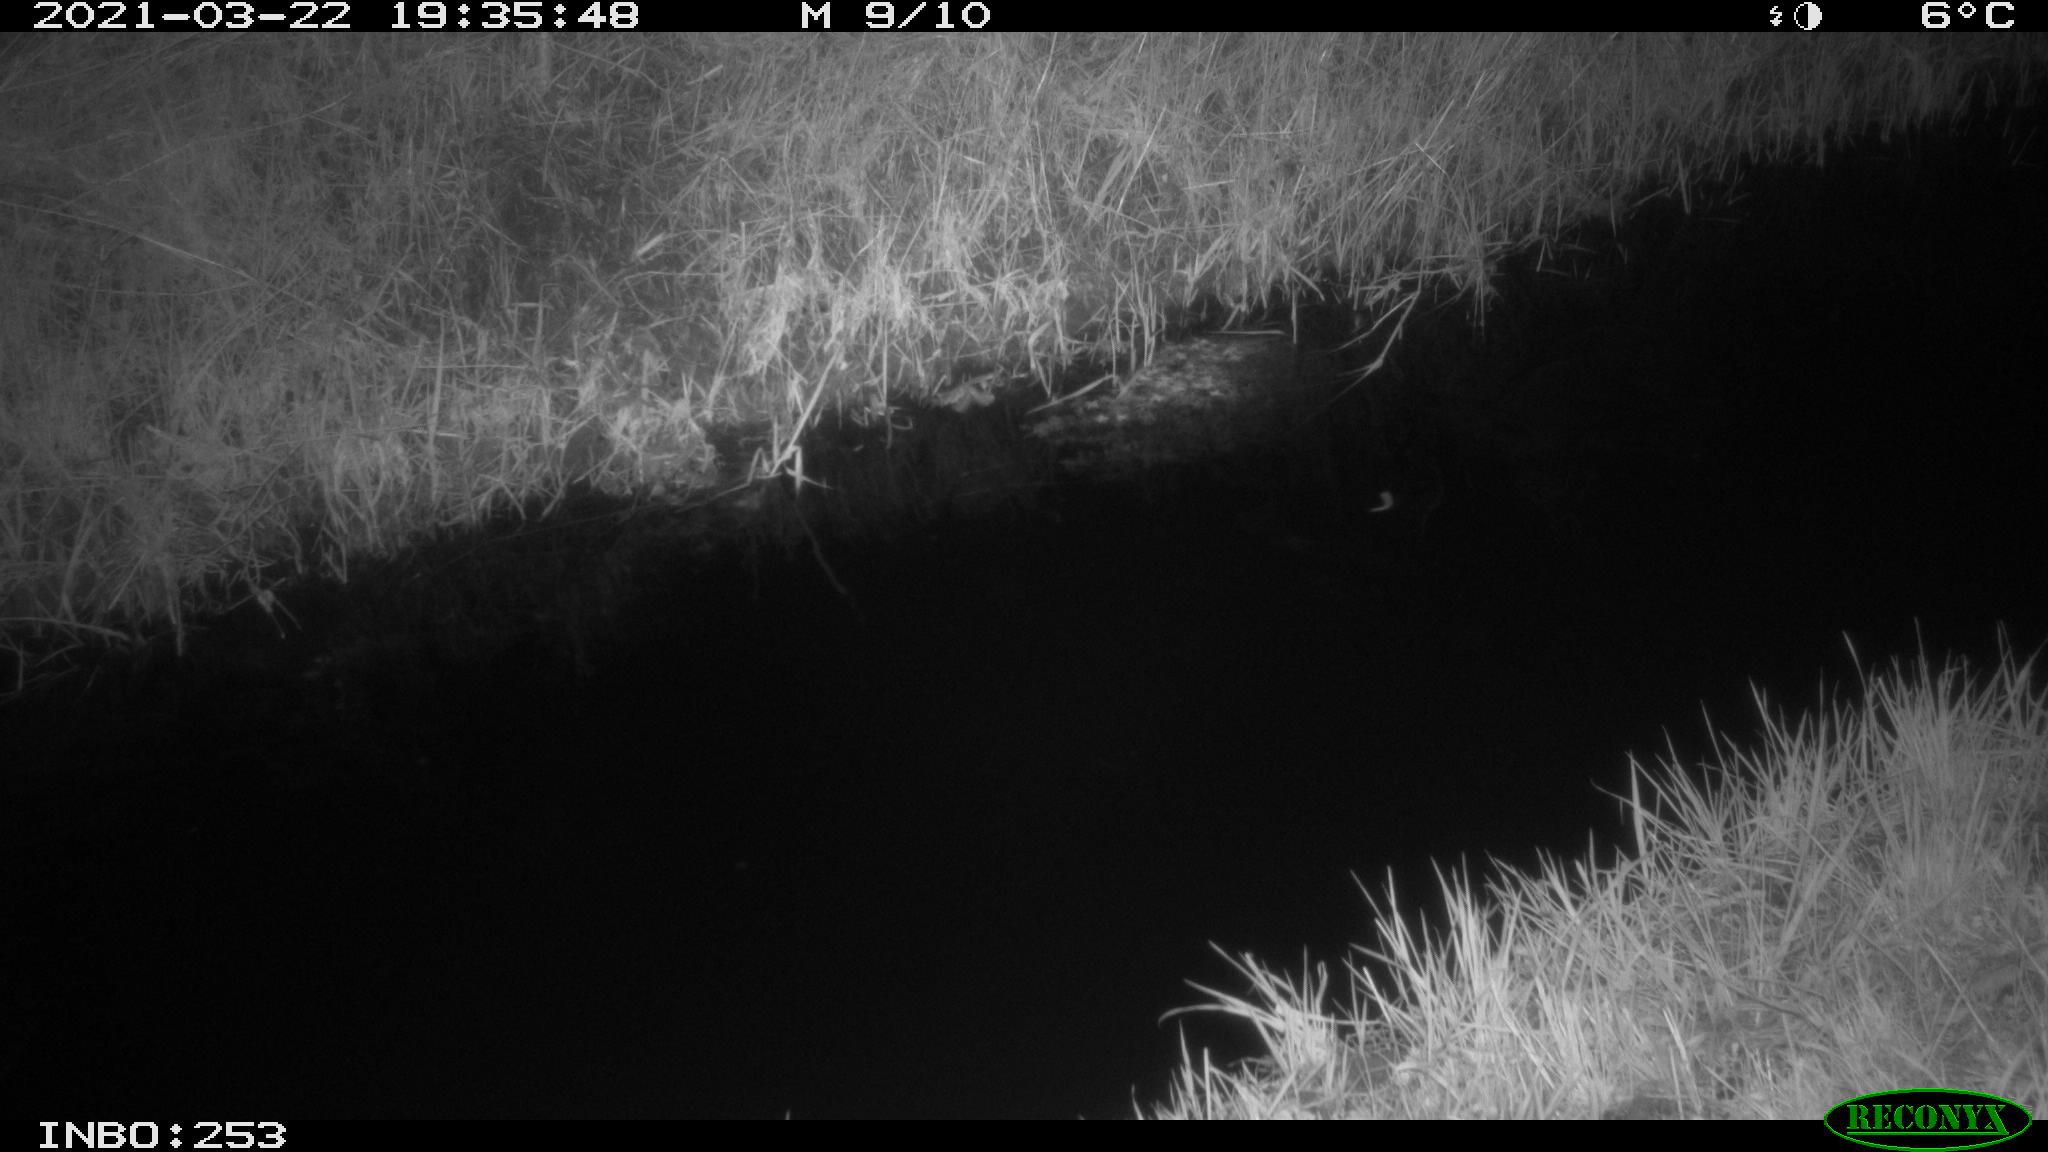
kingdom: Animalia
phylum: Chordata
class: Aves
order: Anseriformes
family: Anatidae
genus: Anas
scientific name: Anas platyrhynchos
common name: Mallard
